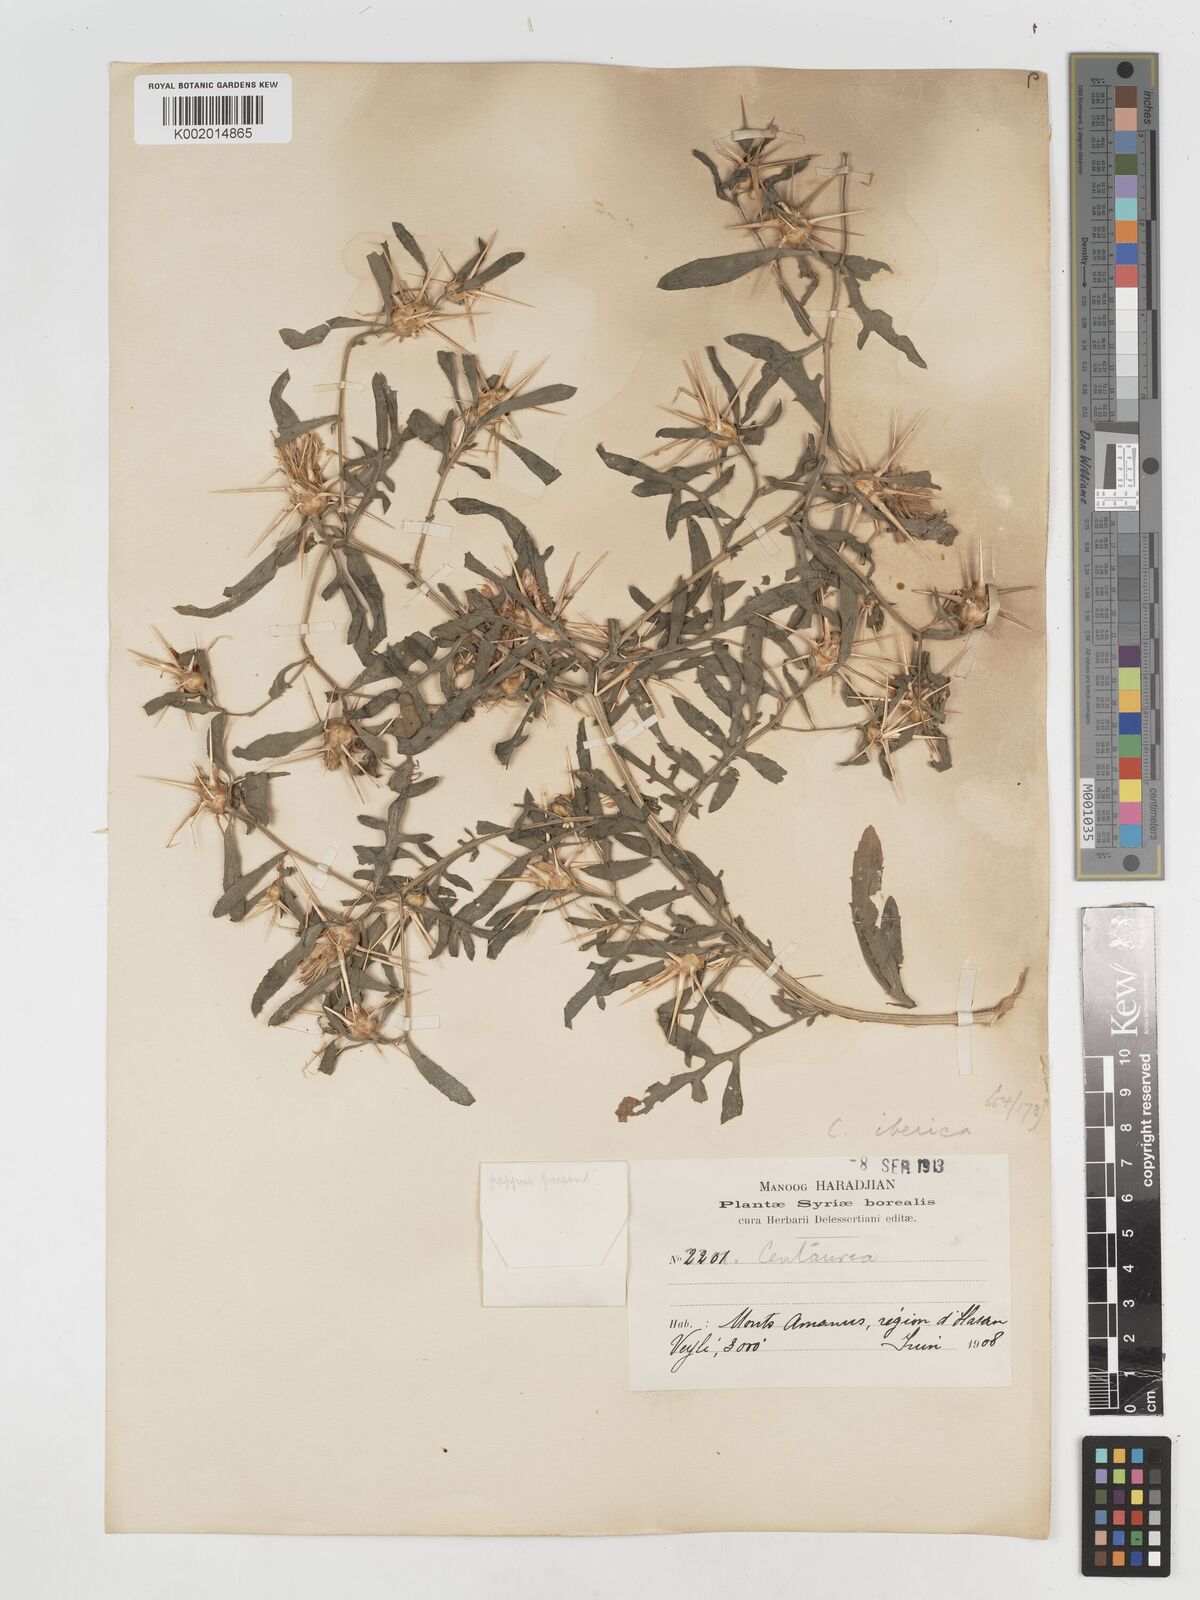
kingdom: Plantae
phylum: Tracheophyta
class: Magnoliopsida
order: Asterales
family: Asteraceae
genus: Centaurea
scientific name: Centaurea iberica
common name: Iberian knapweed
